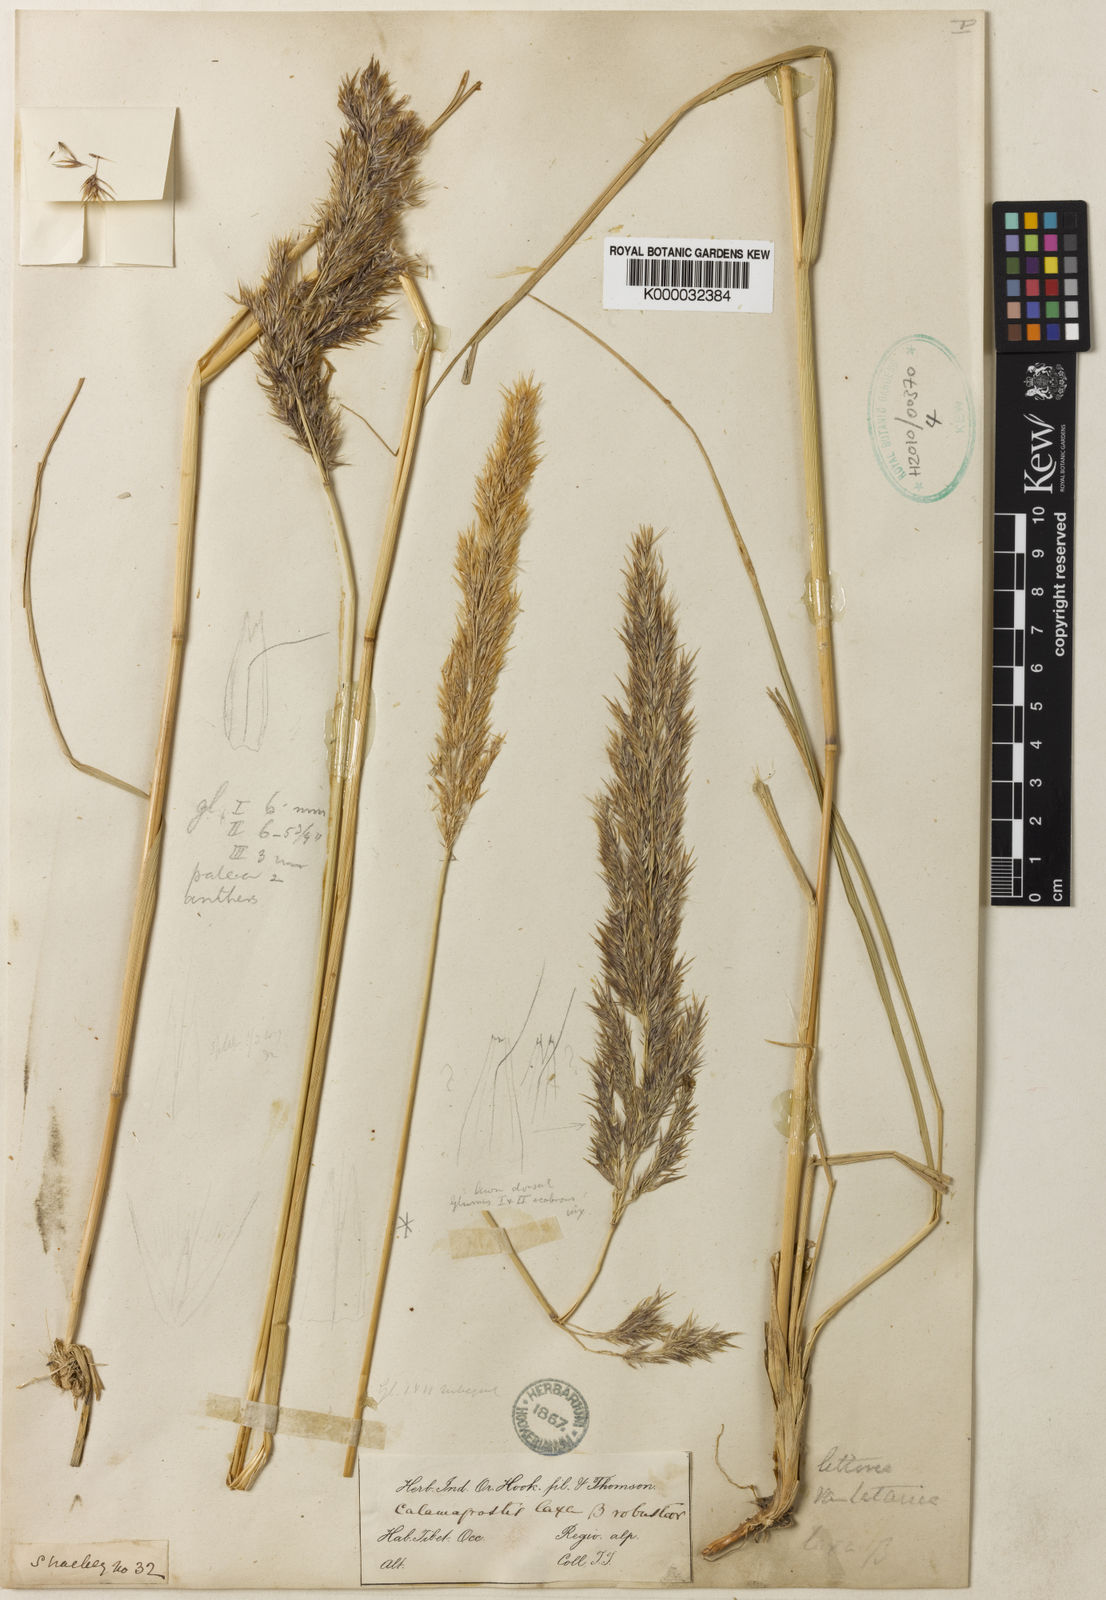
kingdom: Plantae
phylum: Tracheophyta
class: Liliopsida
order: Poales
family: Poaceae
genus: Calamagrostis
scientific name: Calamagrostis pseudophragmites
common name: Coastal small-reed
